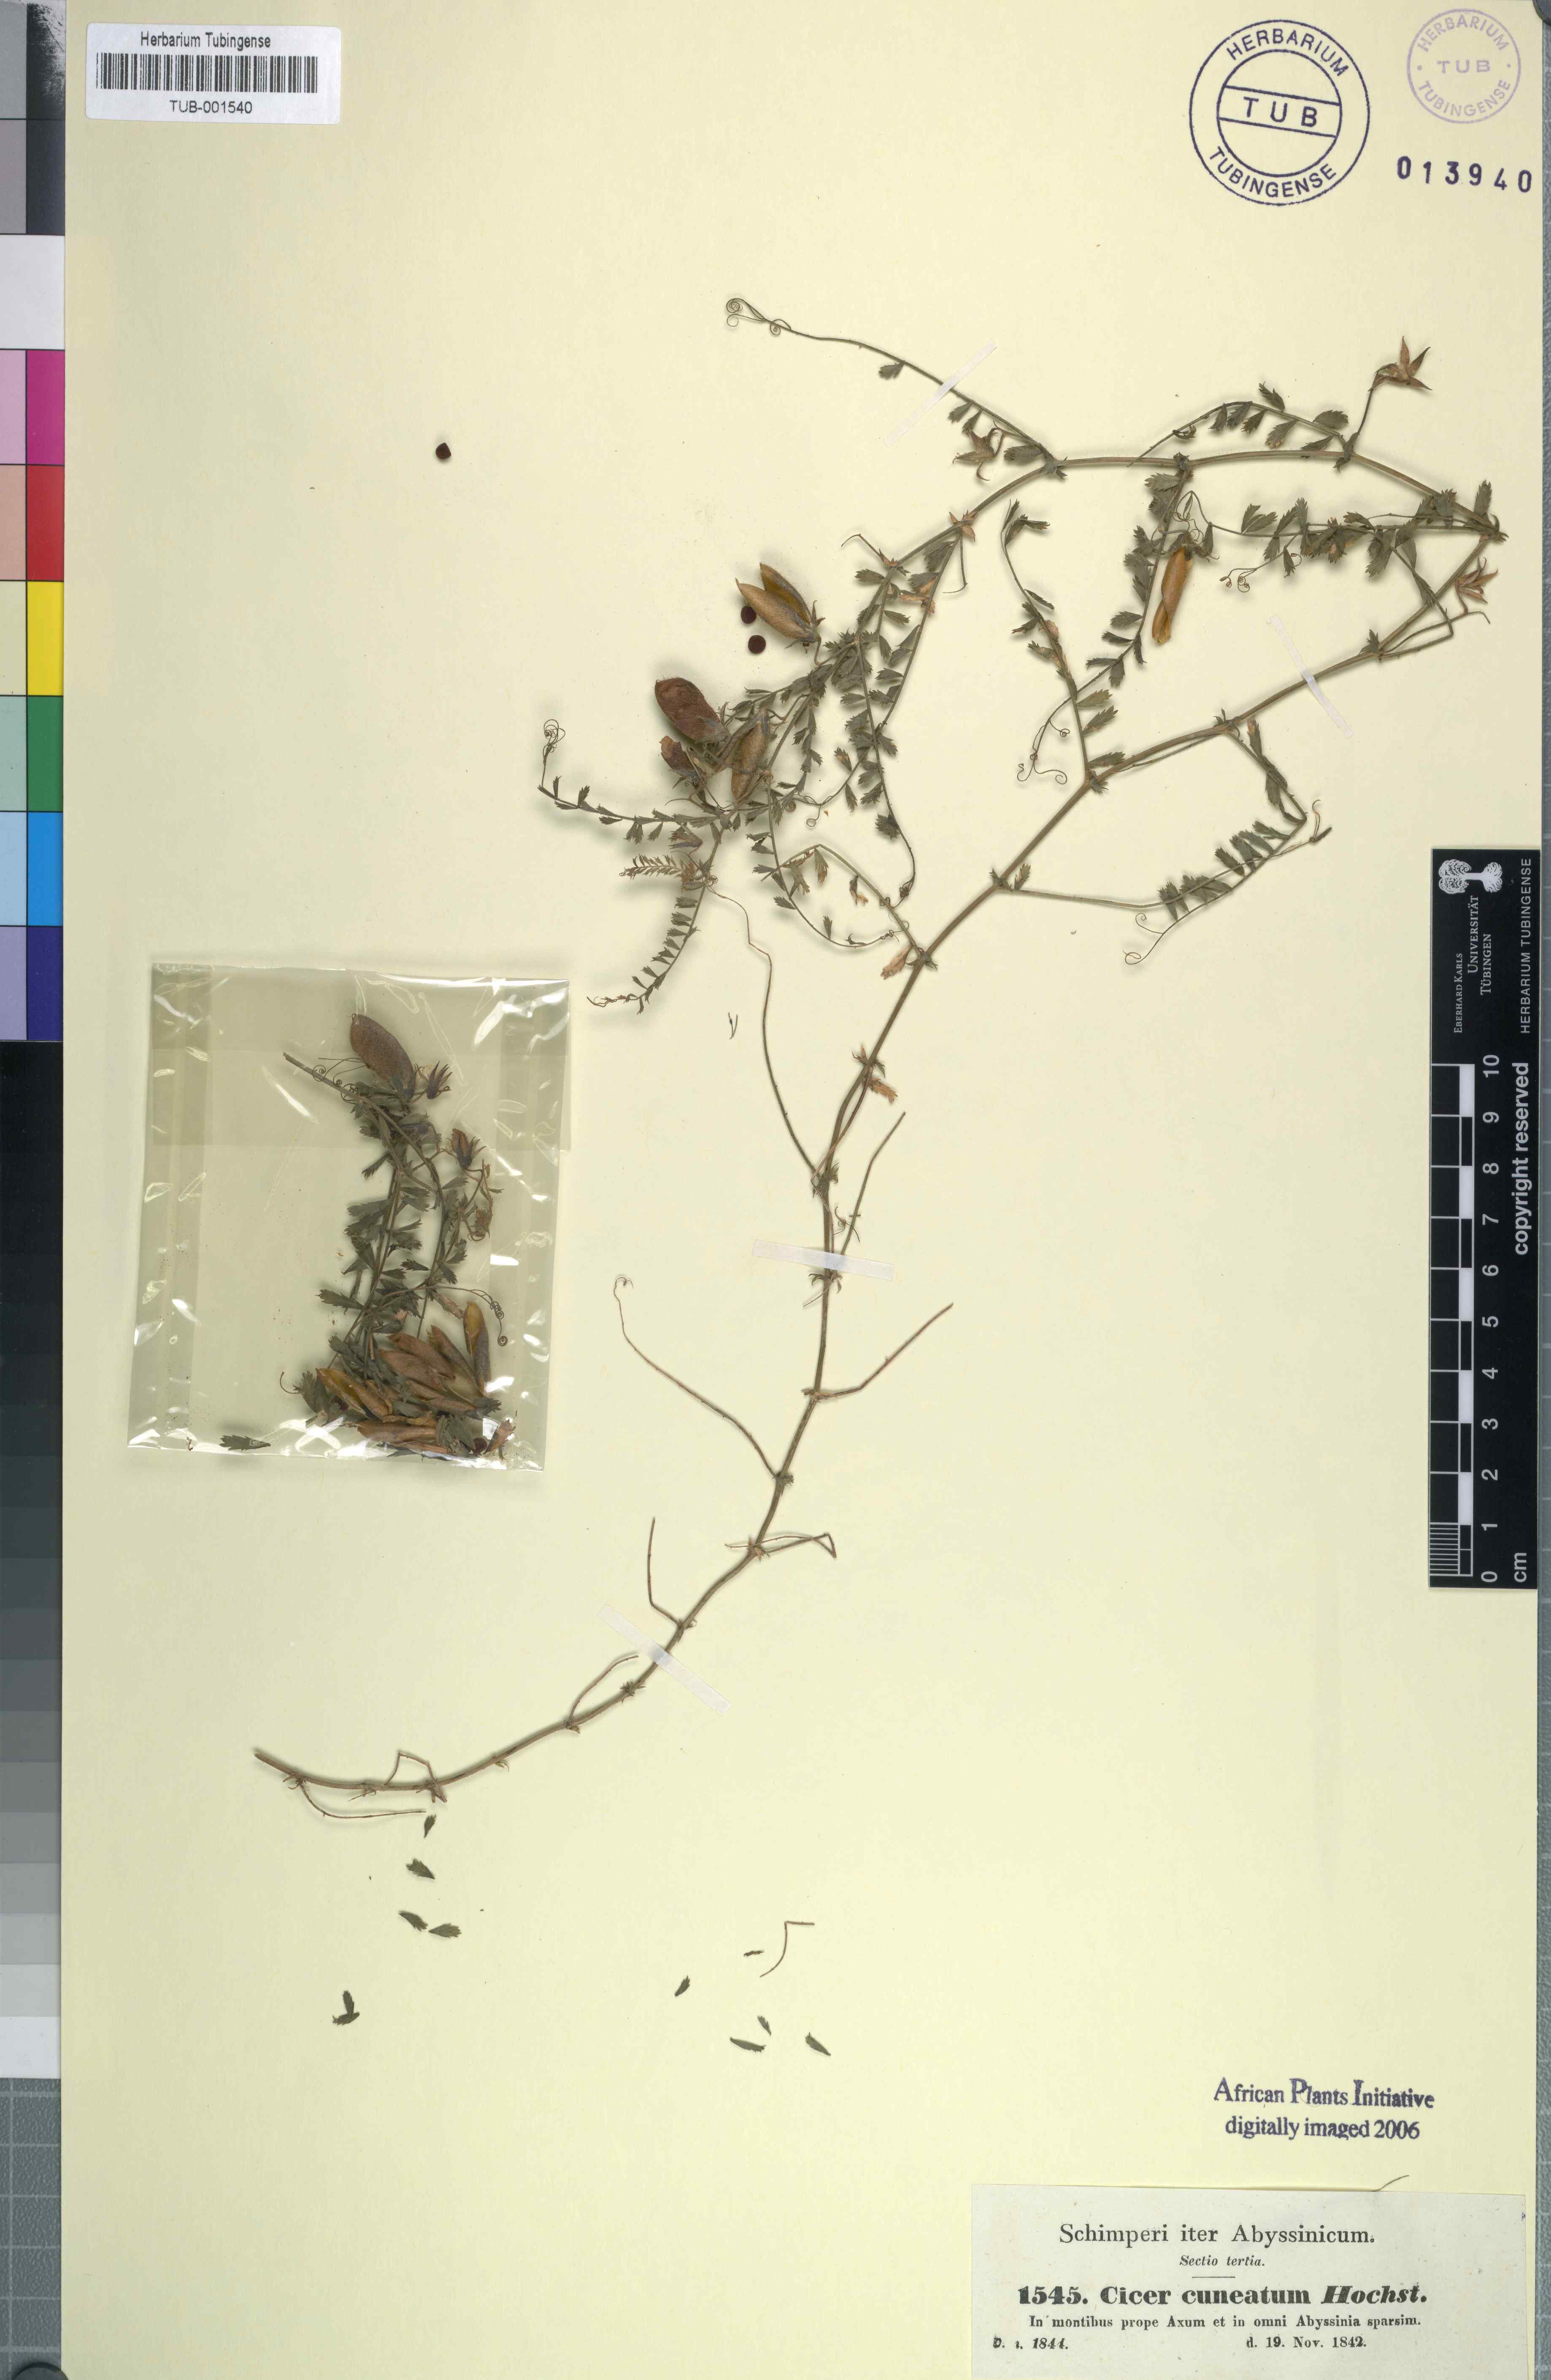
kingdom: Plantae
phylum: Tracheophyta
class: Magnoliopsida
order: Fabales
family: Fabaceae
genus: Cicer
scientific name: Cicer arietinum
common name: Chick pea
